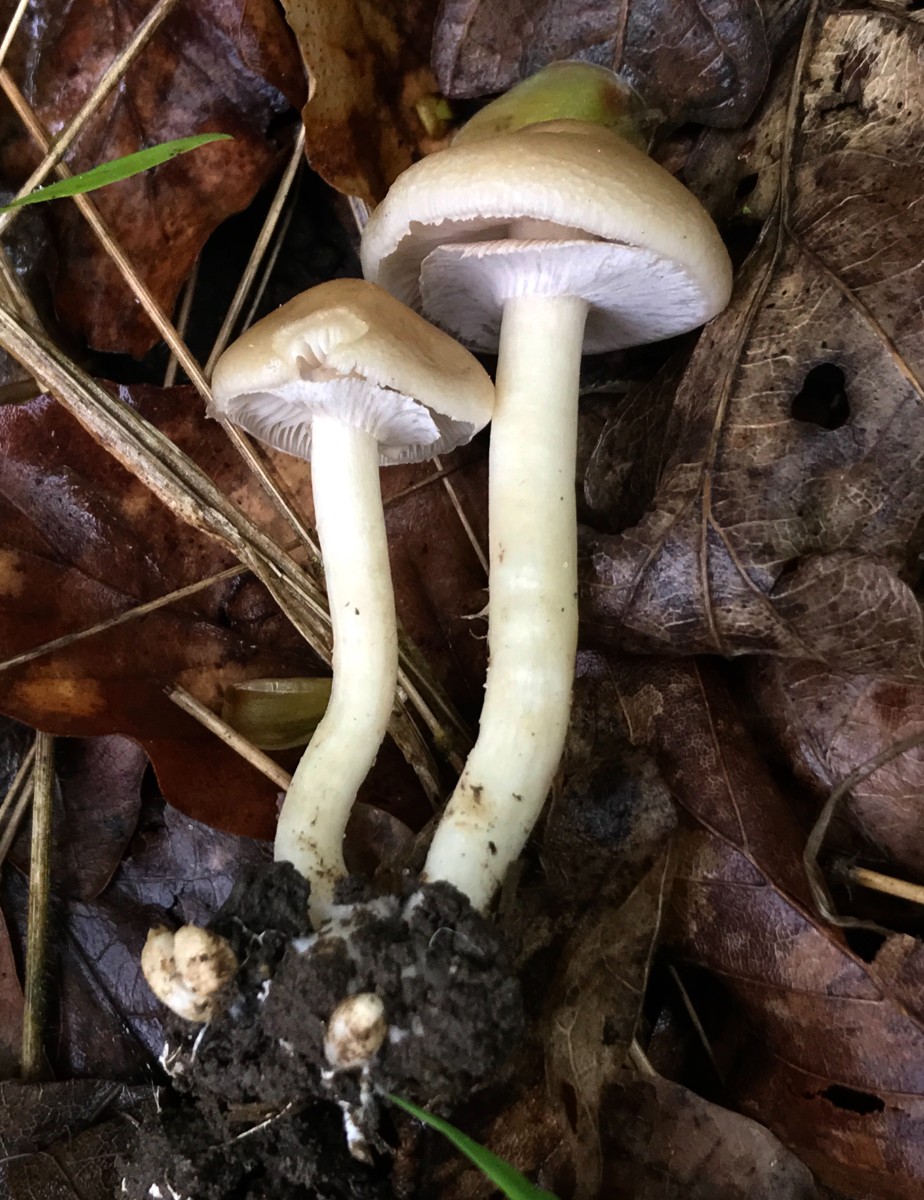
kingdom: Fungi
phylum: Basidiomycota
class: Agaricomycetes
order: Agaricales
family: Strophariaceae
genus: Agrocybe
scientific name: Agrocybe praecox
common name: tidlig agerhat
